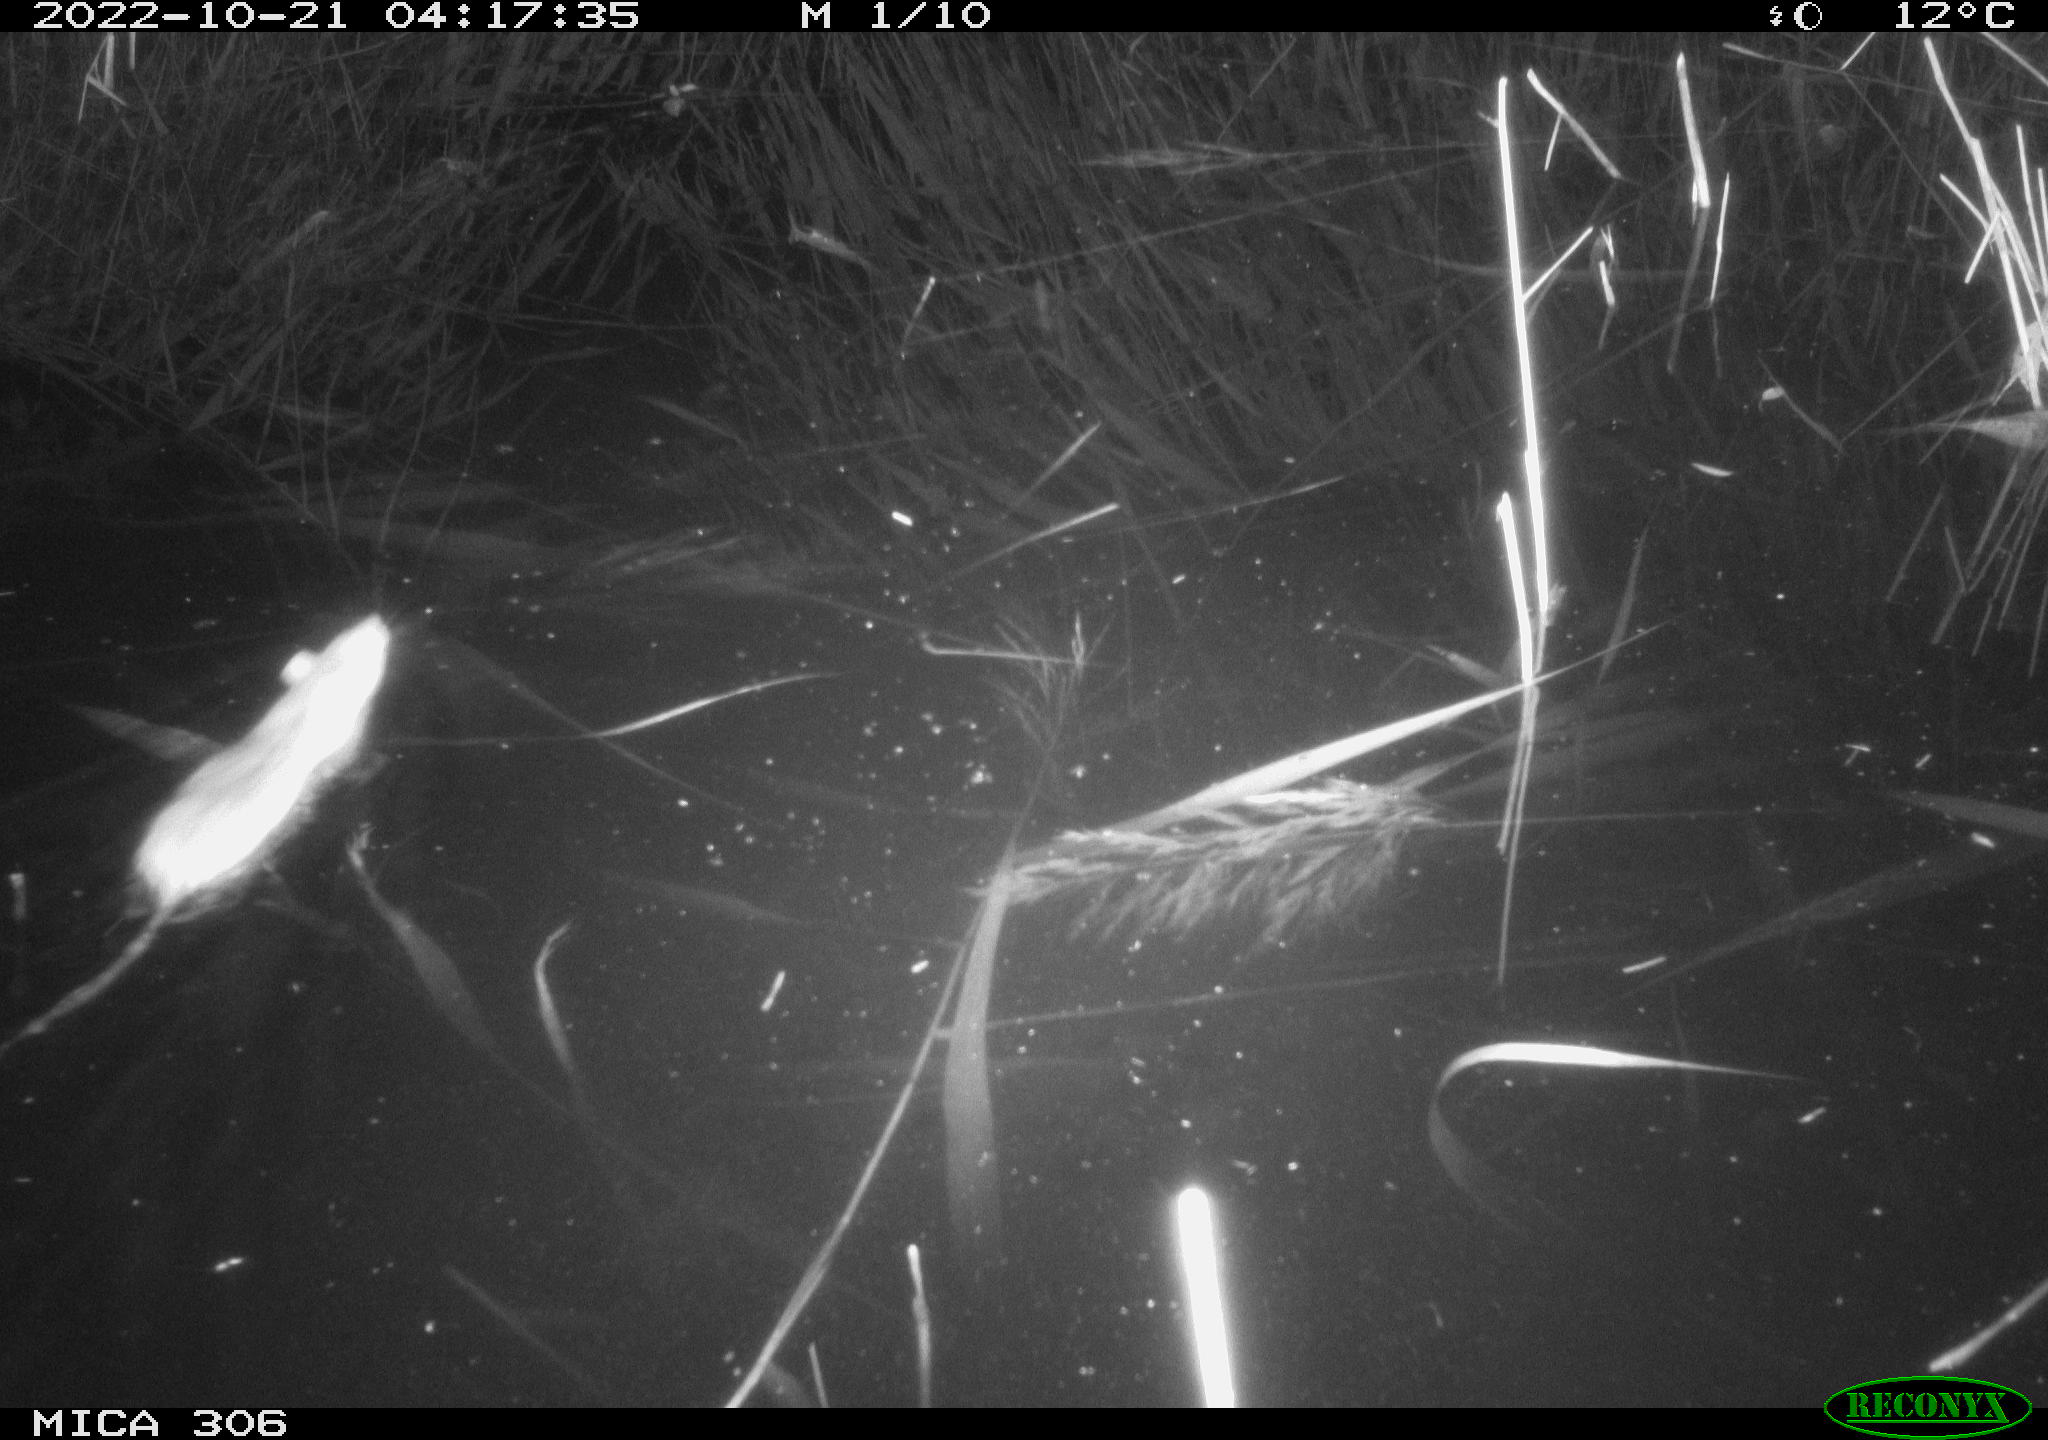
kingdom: Animalia
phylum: Chordata
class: Mammalia
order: Rodentia
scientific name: Rodentia
